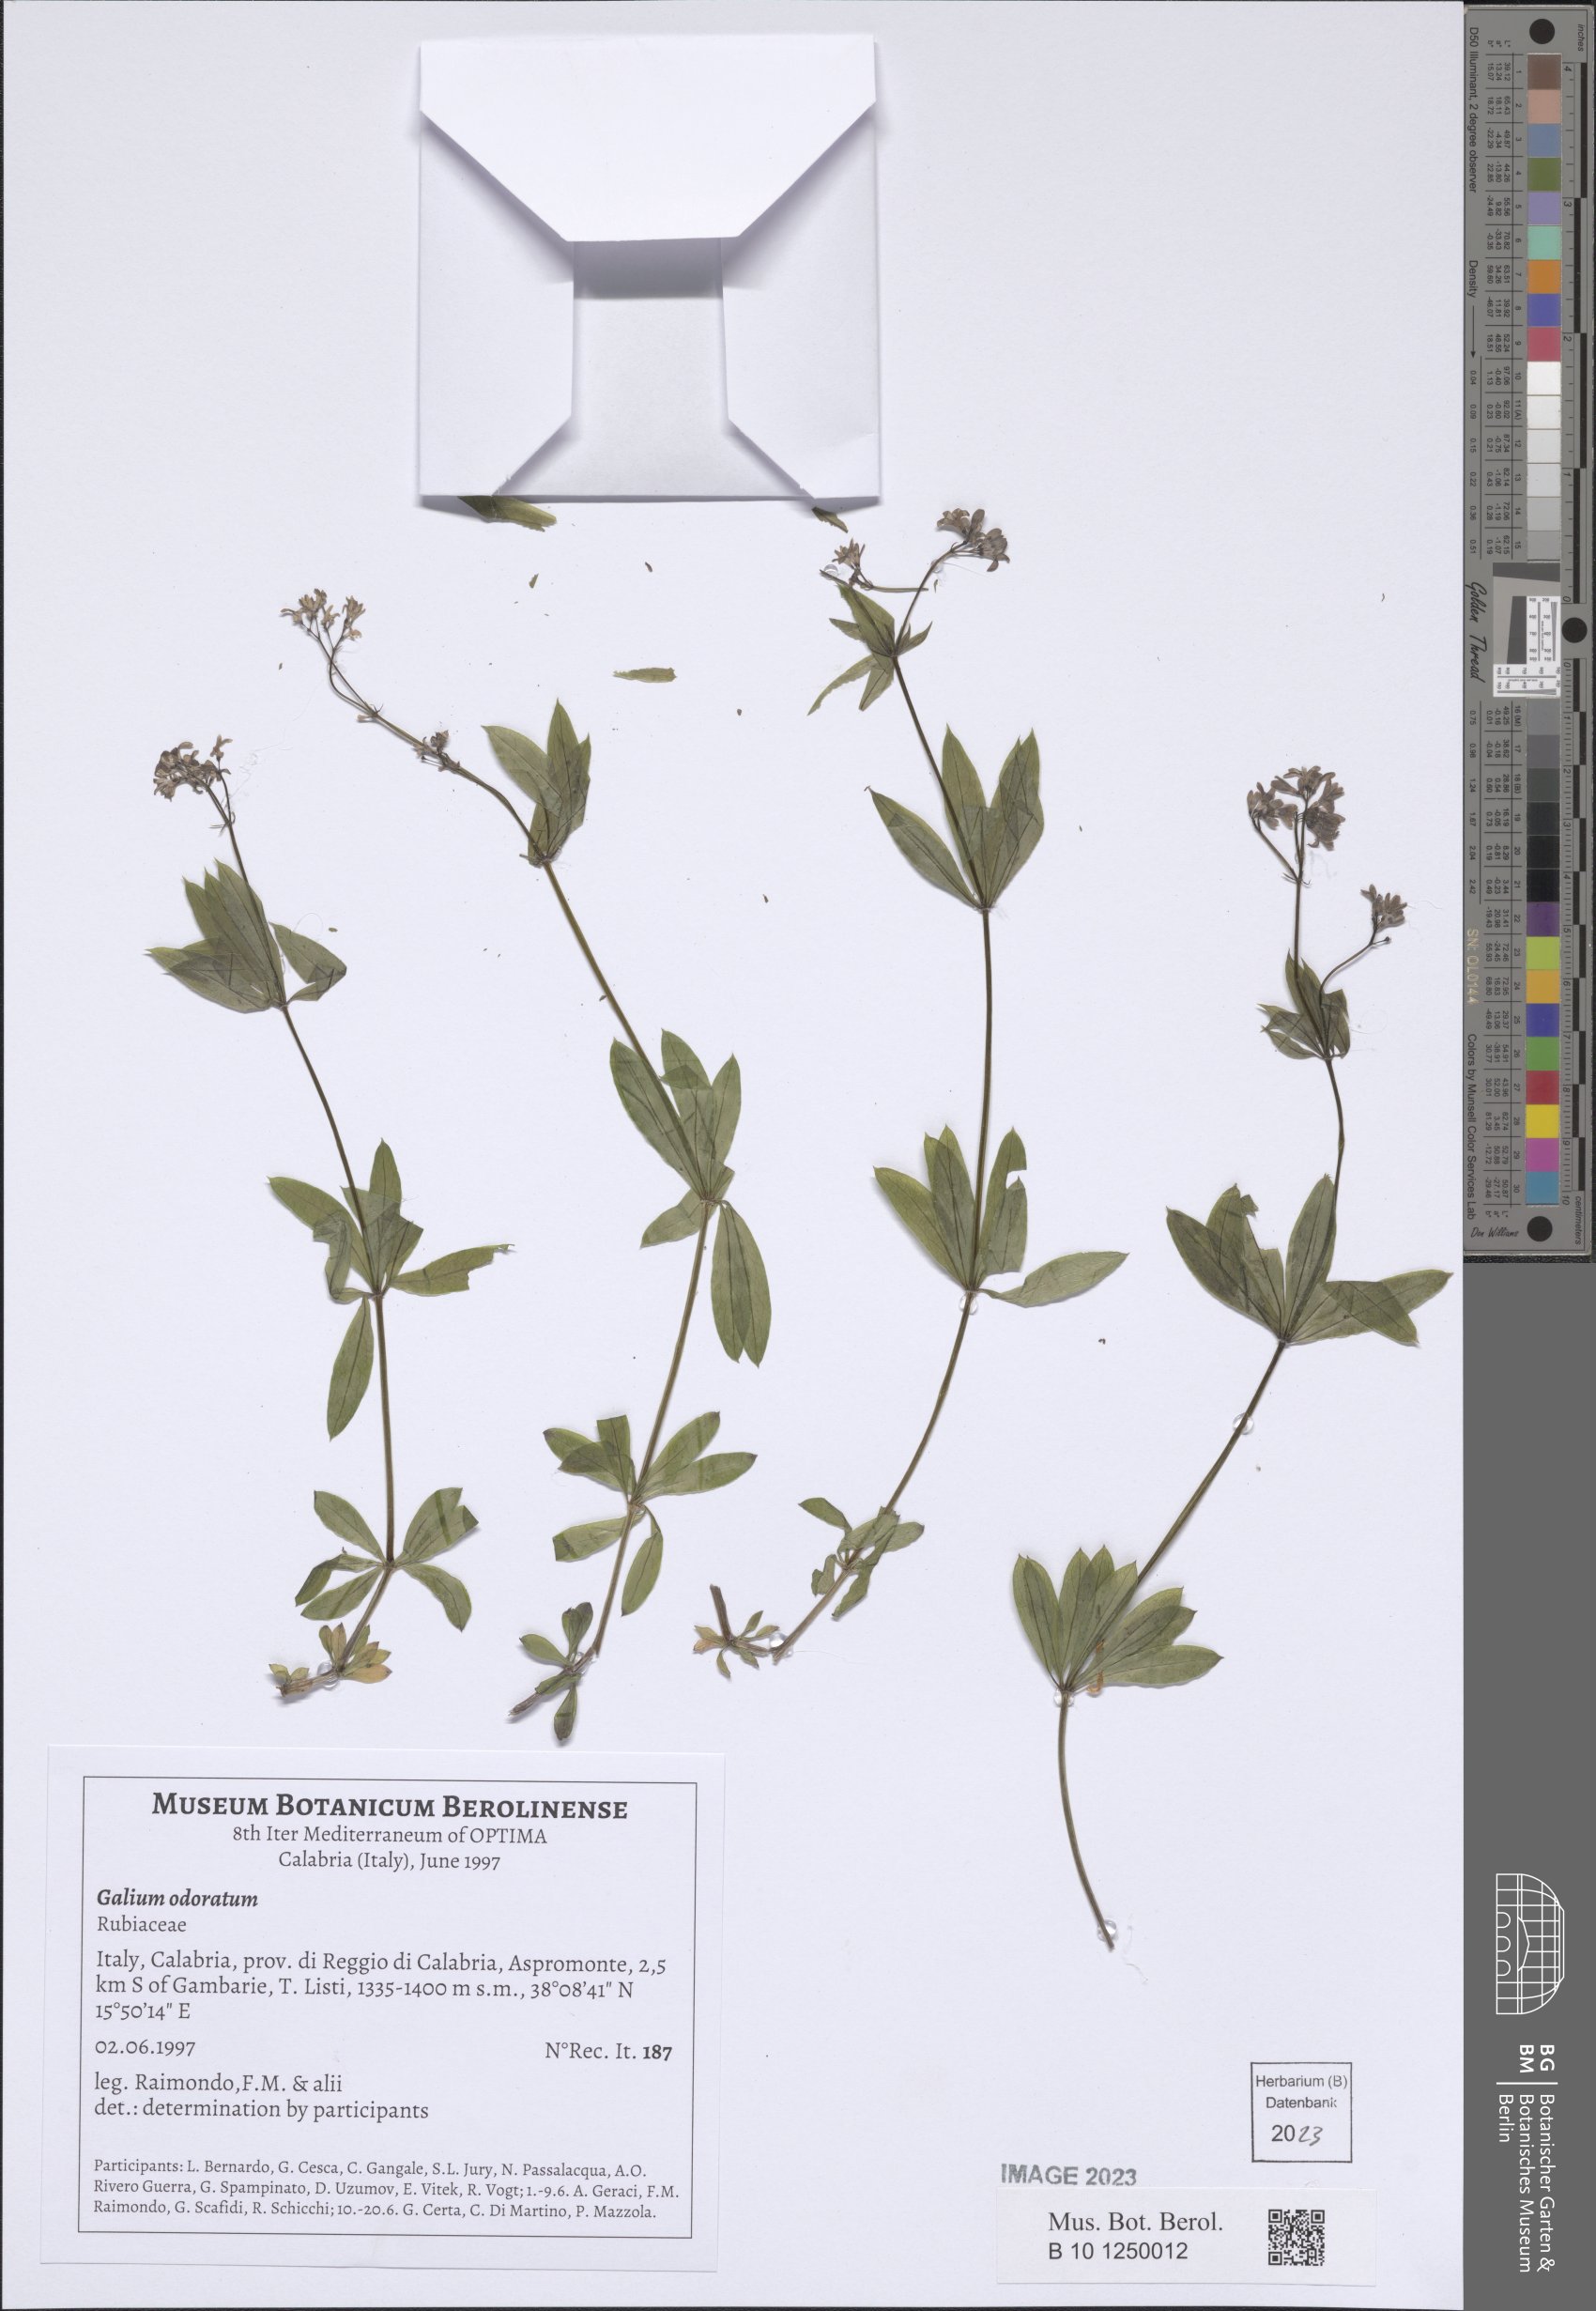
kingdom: Plantae
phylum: Tracheophyta
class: Magnoliopsida
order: Gentianales
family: Rubiaceae
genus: Galium
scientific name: Galium odoratum
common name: Sweet woodruff
